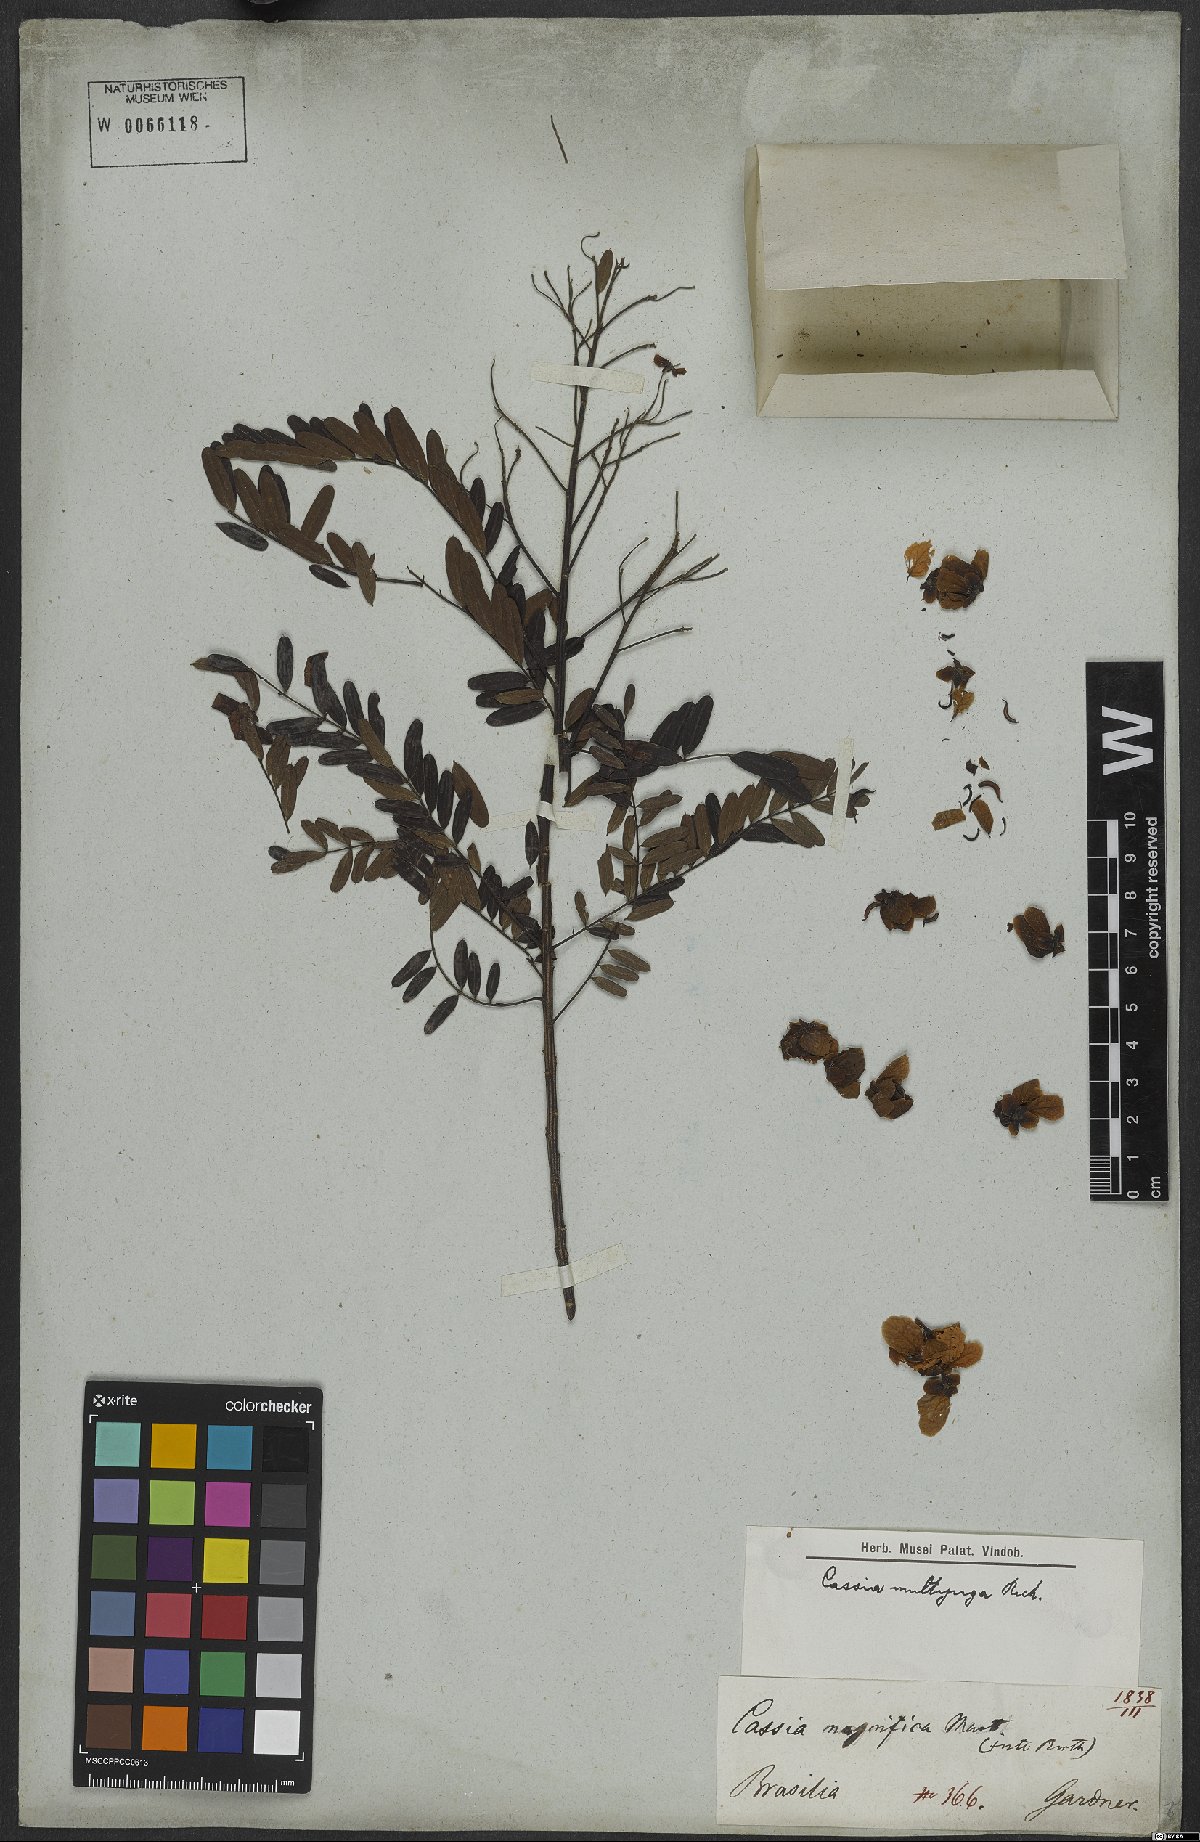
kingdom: Plantae
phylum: Tracheophyta
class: Magnoliopsida
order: Fabales
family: Fabaceae
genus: Senna
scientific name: Senna multijuga
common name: False sicklepod
